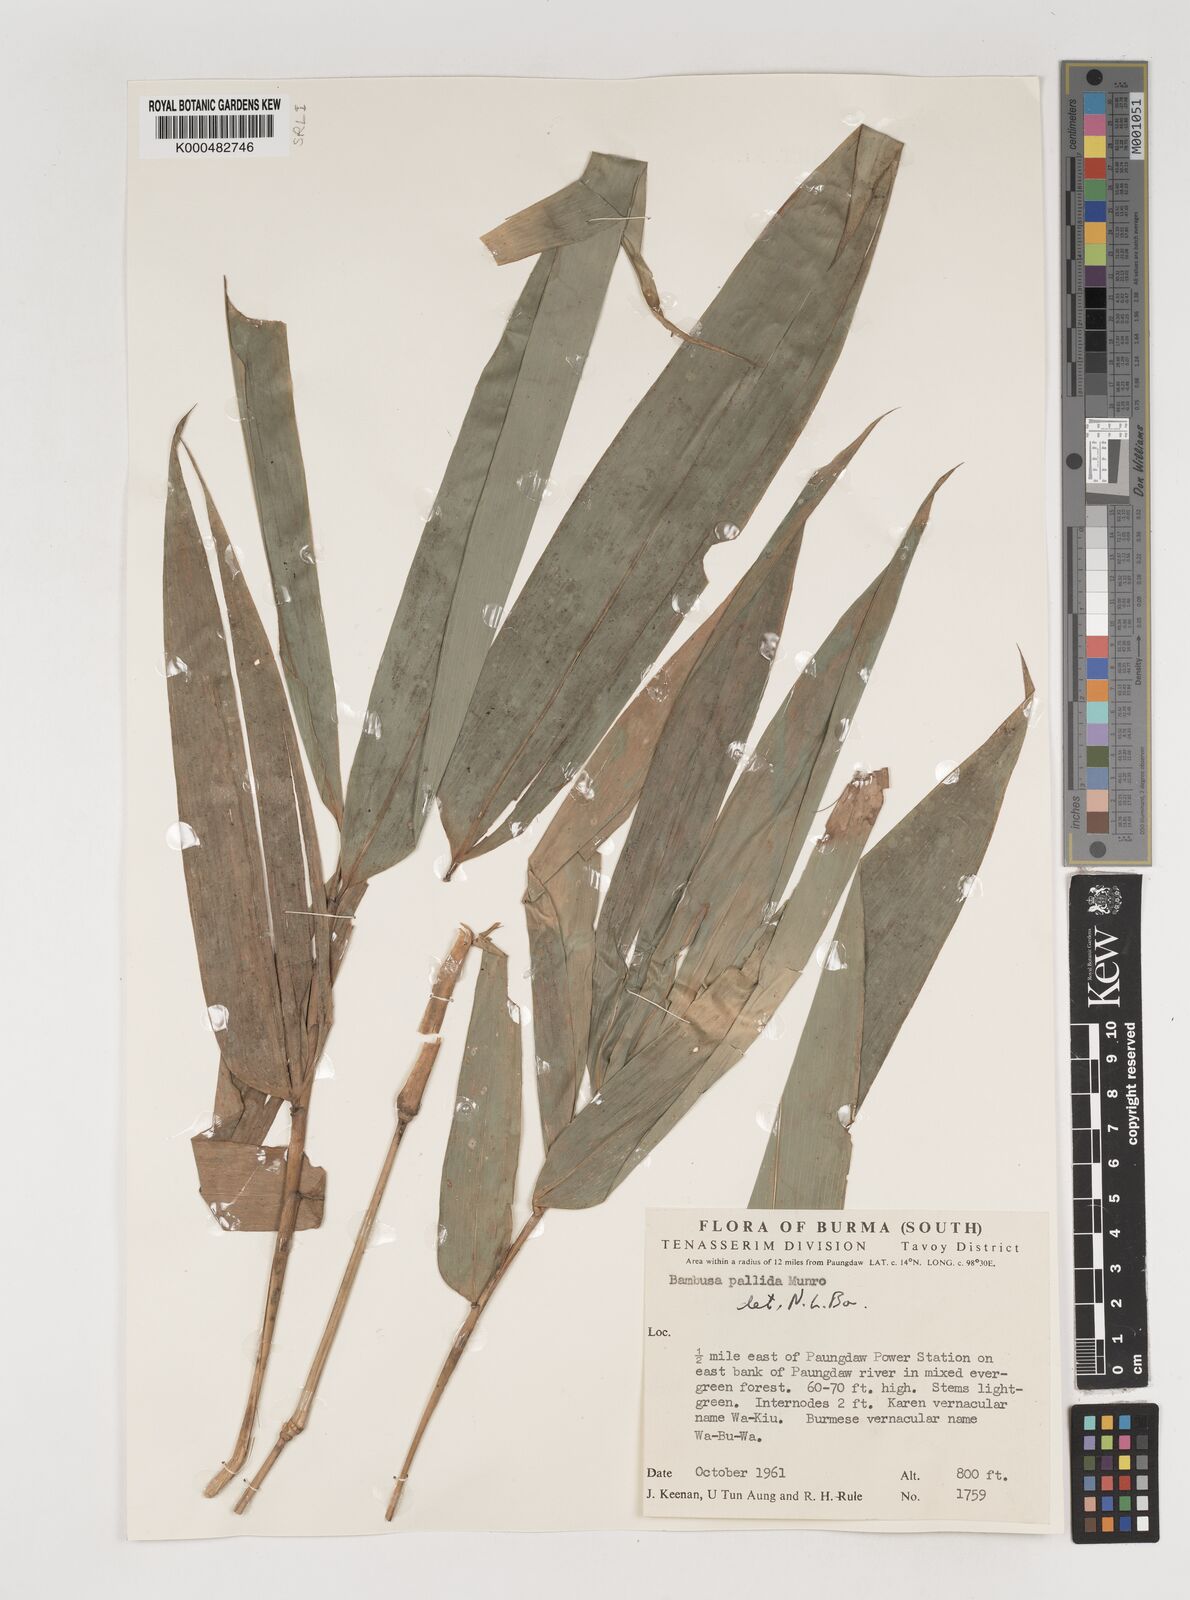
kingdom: Plantae
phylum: Tracheophyta
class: Liliopsida
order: Poales
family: Poaceae
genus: Bambusa
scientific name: Bambusa pallida
